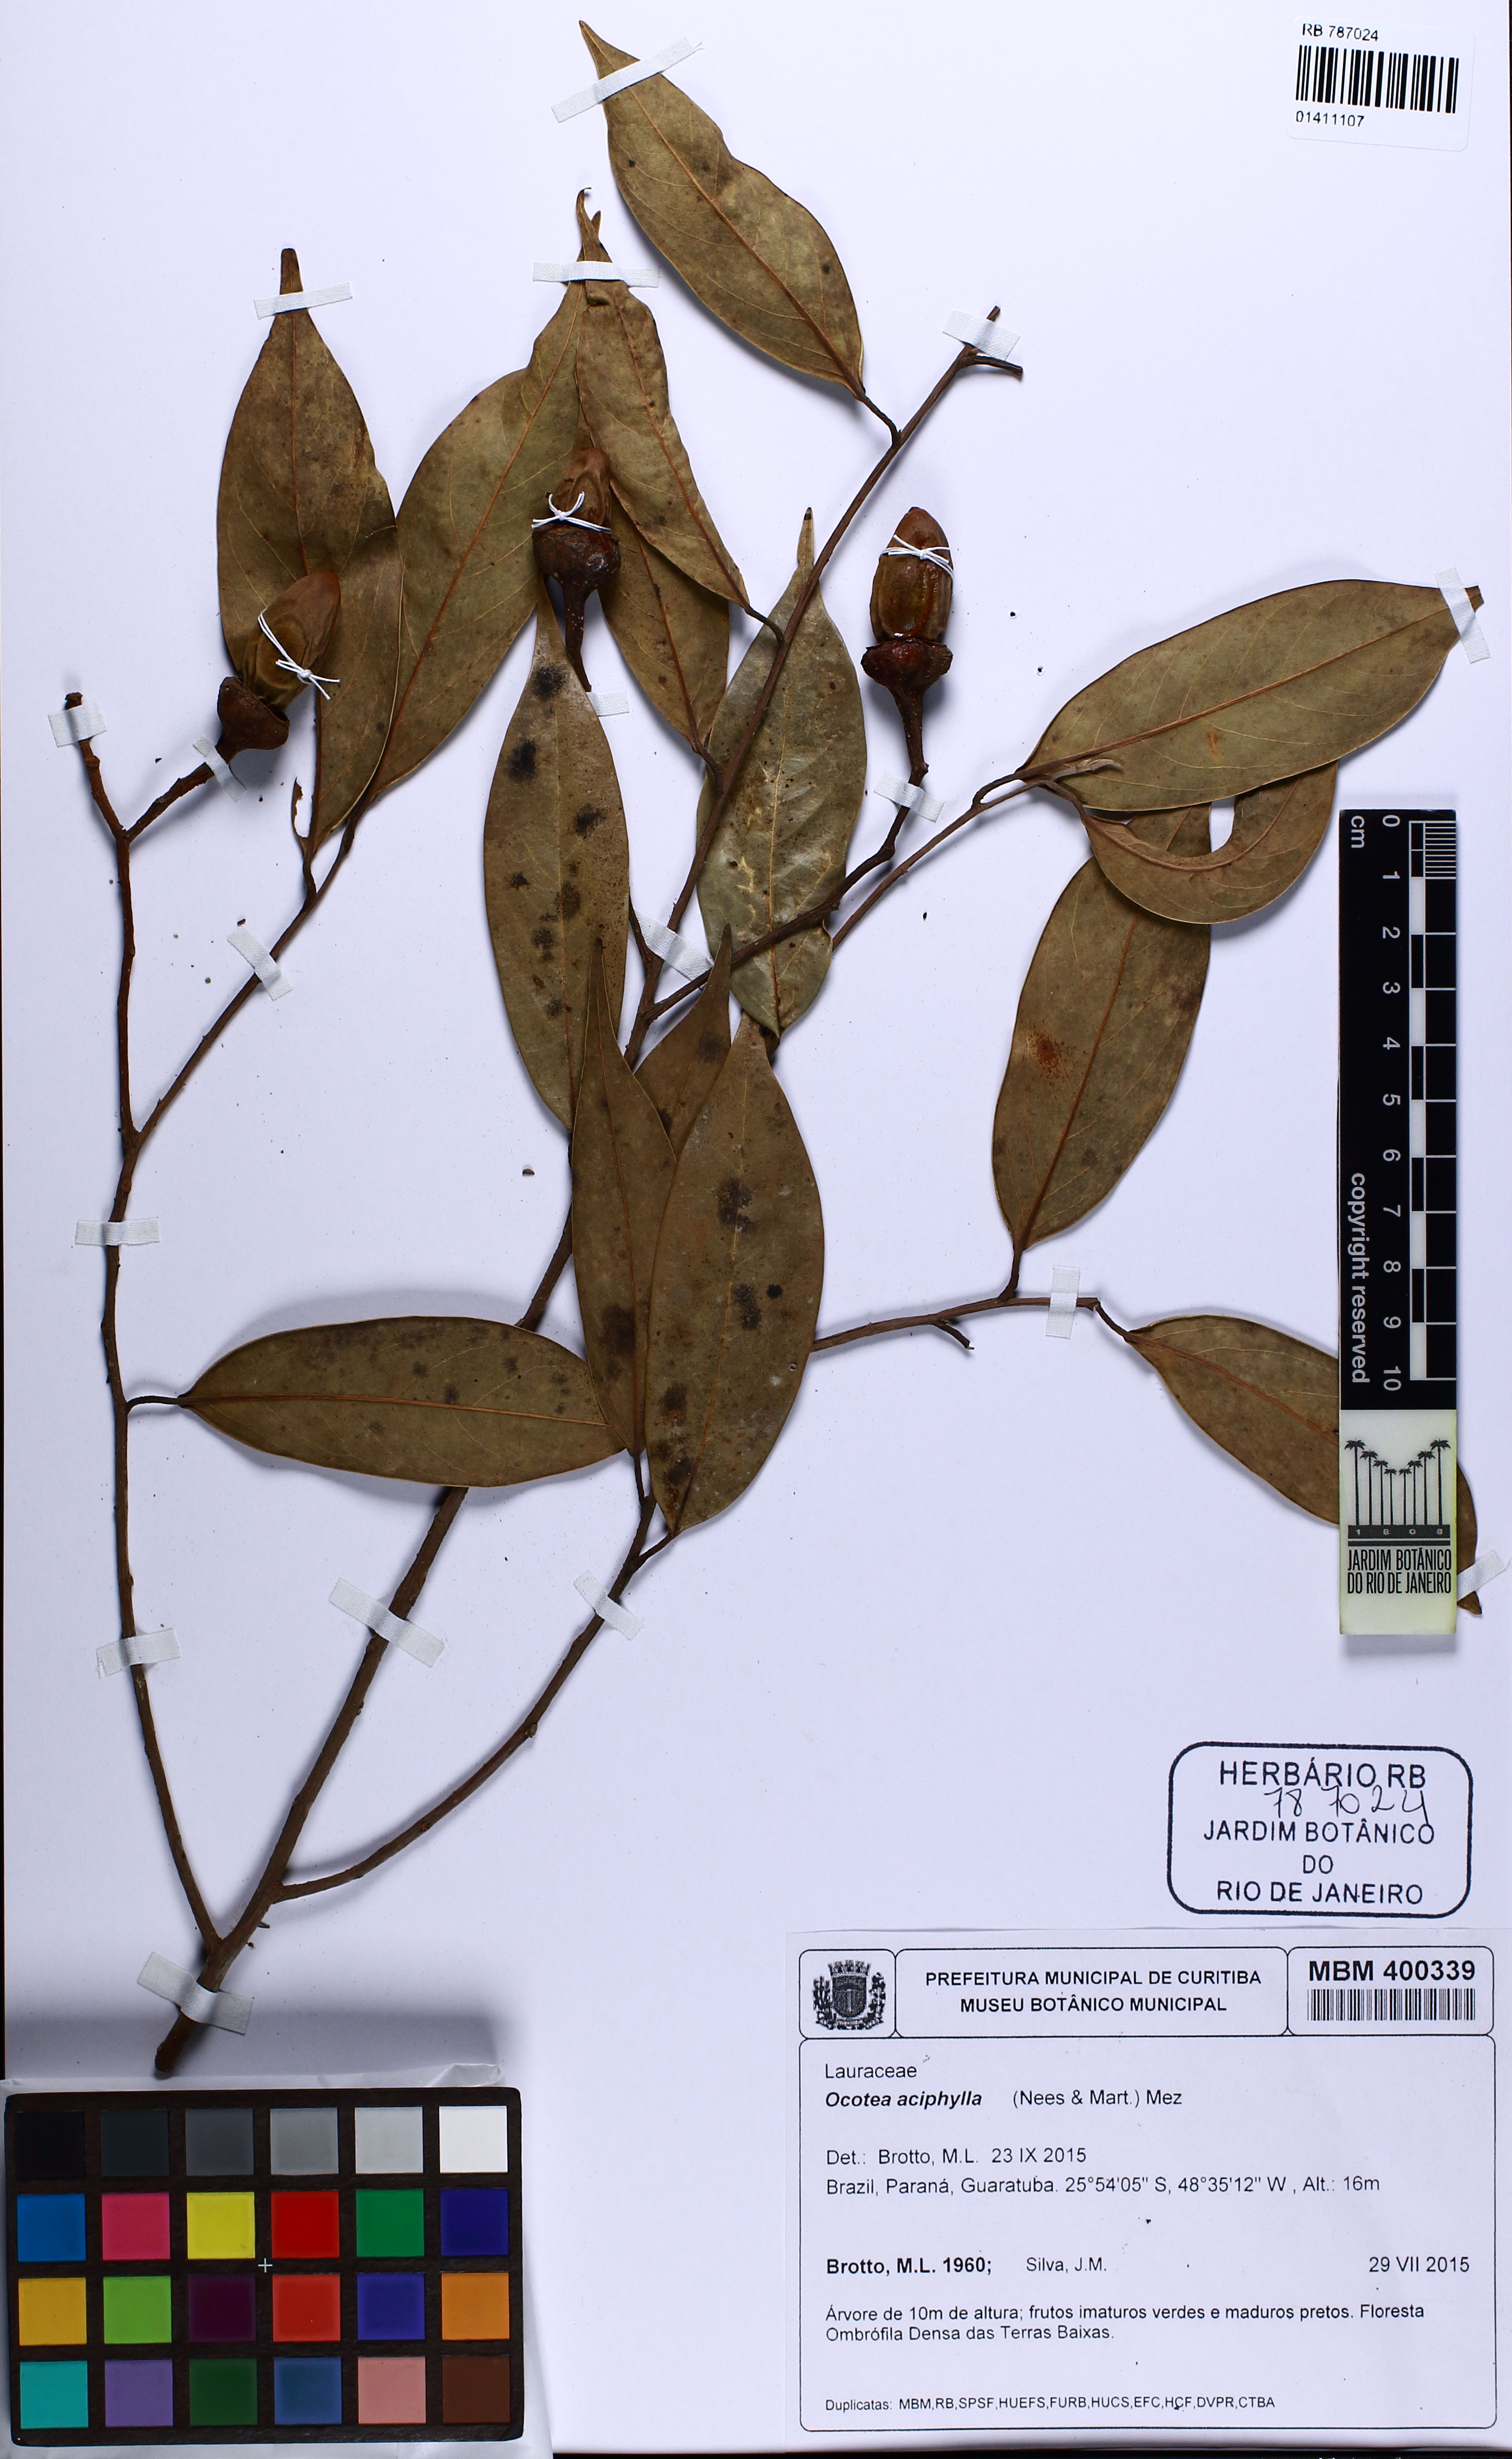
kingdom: Plantae
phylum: Tracheophyta
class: Magnoliopsida
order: Laurales
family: Lauraceae
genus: Ocotea
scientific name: Ocotea aciphylla
